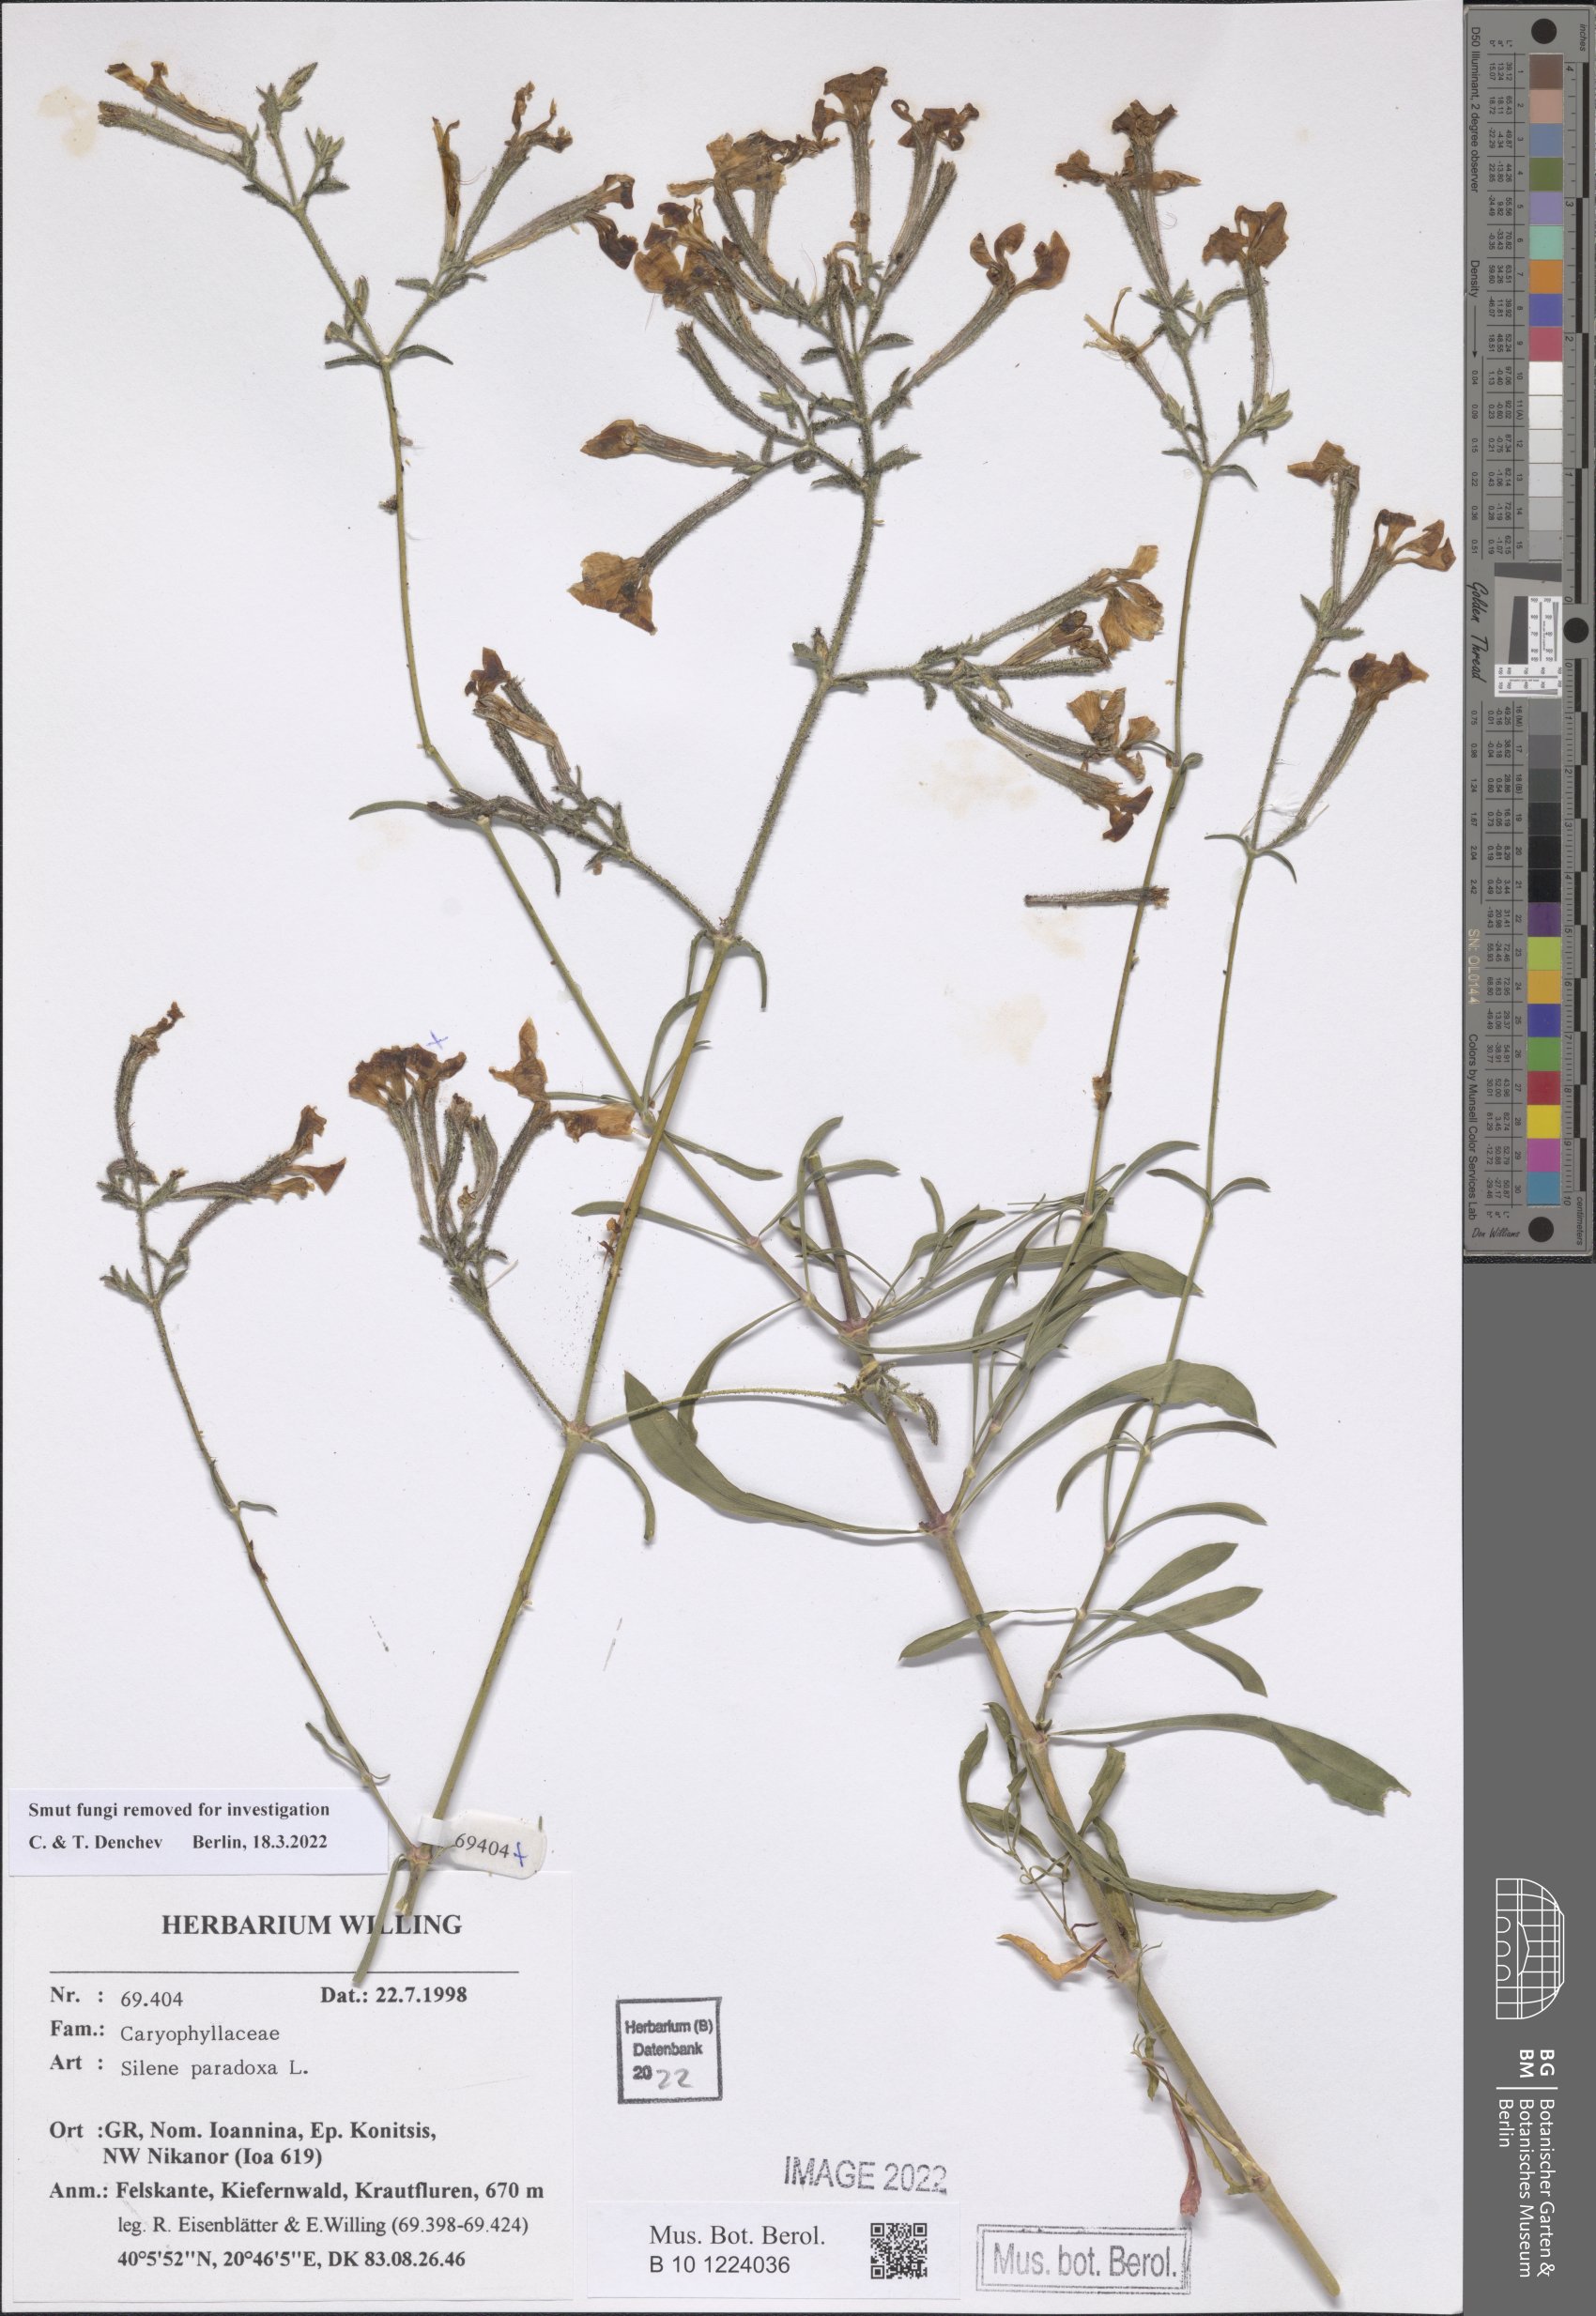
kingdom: Plantae
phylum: Tracheophyta
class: Magnoliopsida
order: Caryophyllales
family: Caryophyllaceae
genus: Silene
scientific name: Silene paradoxa
